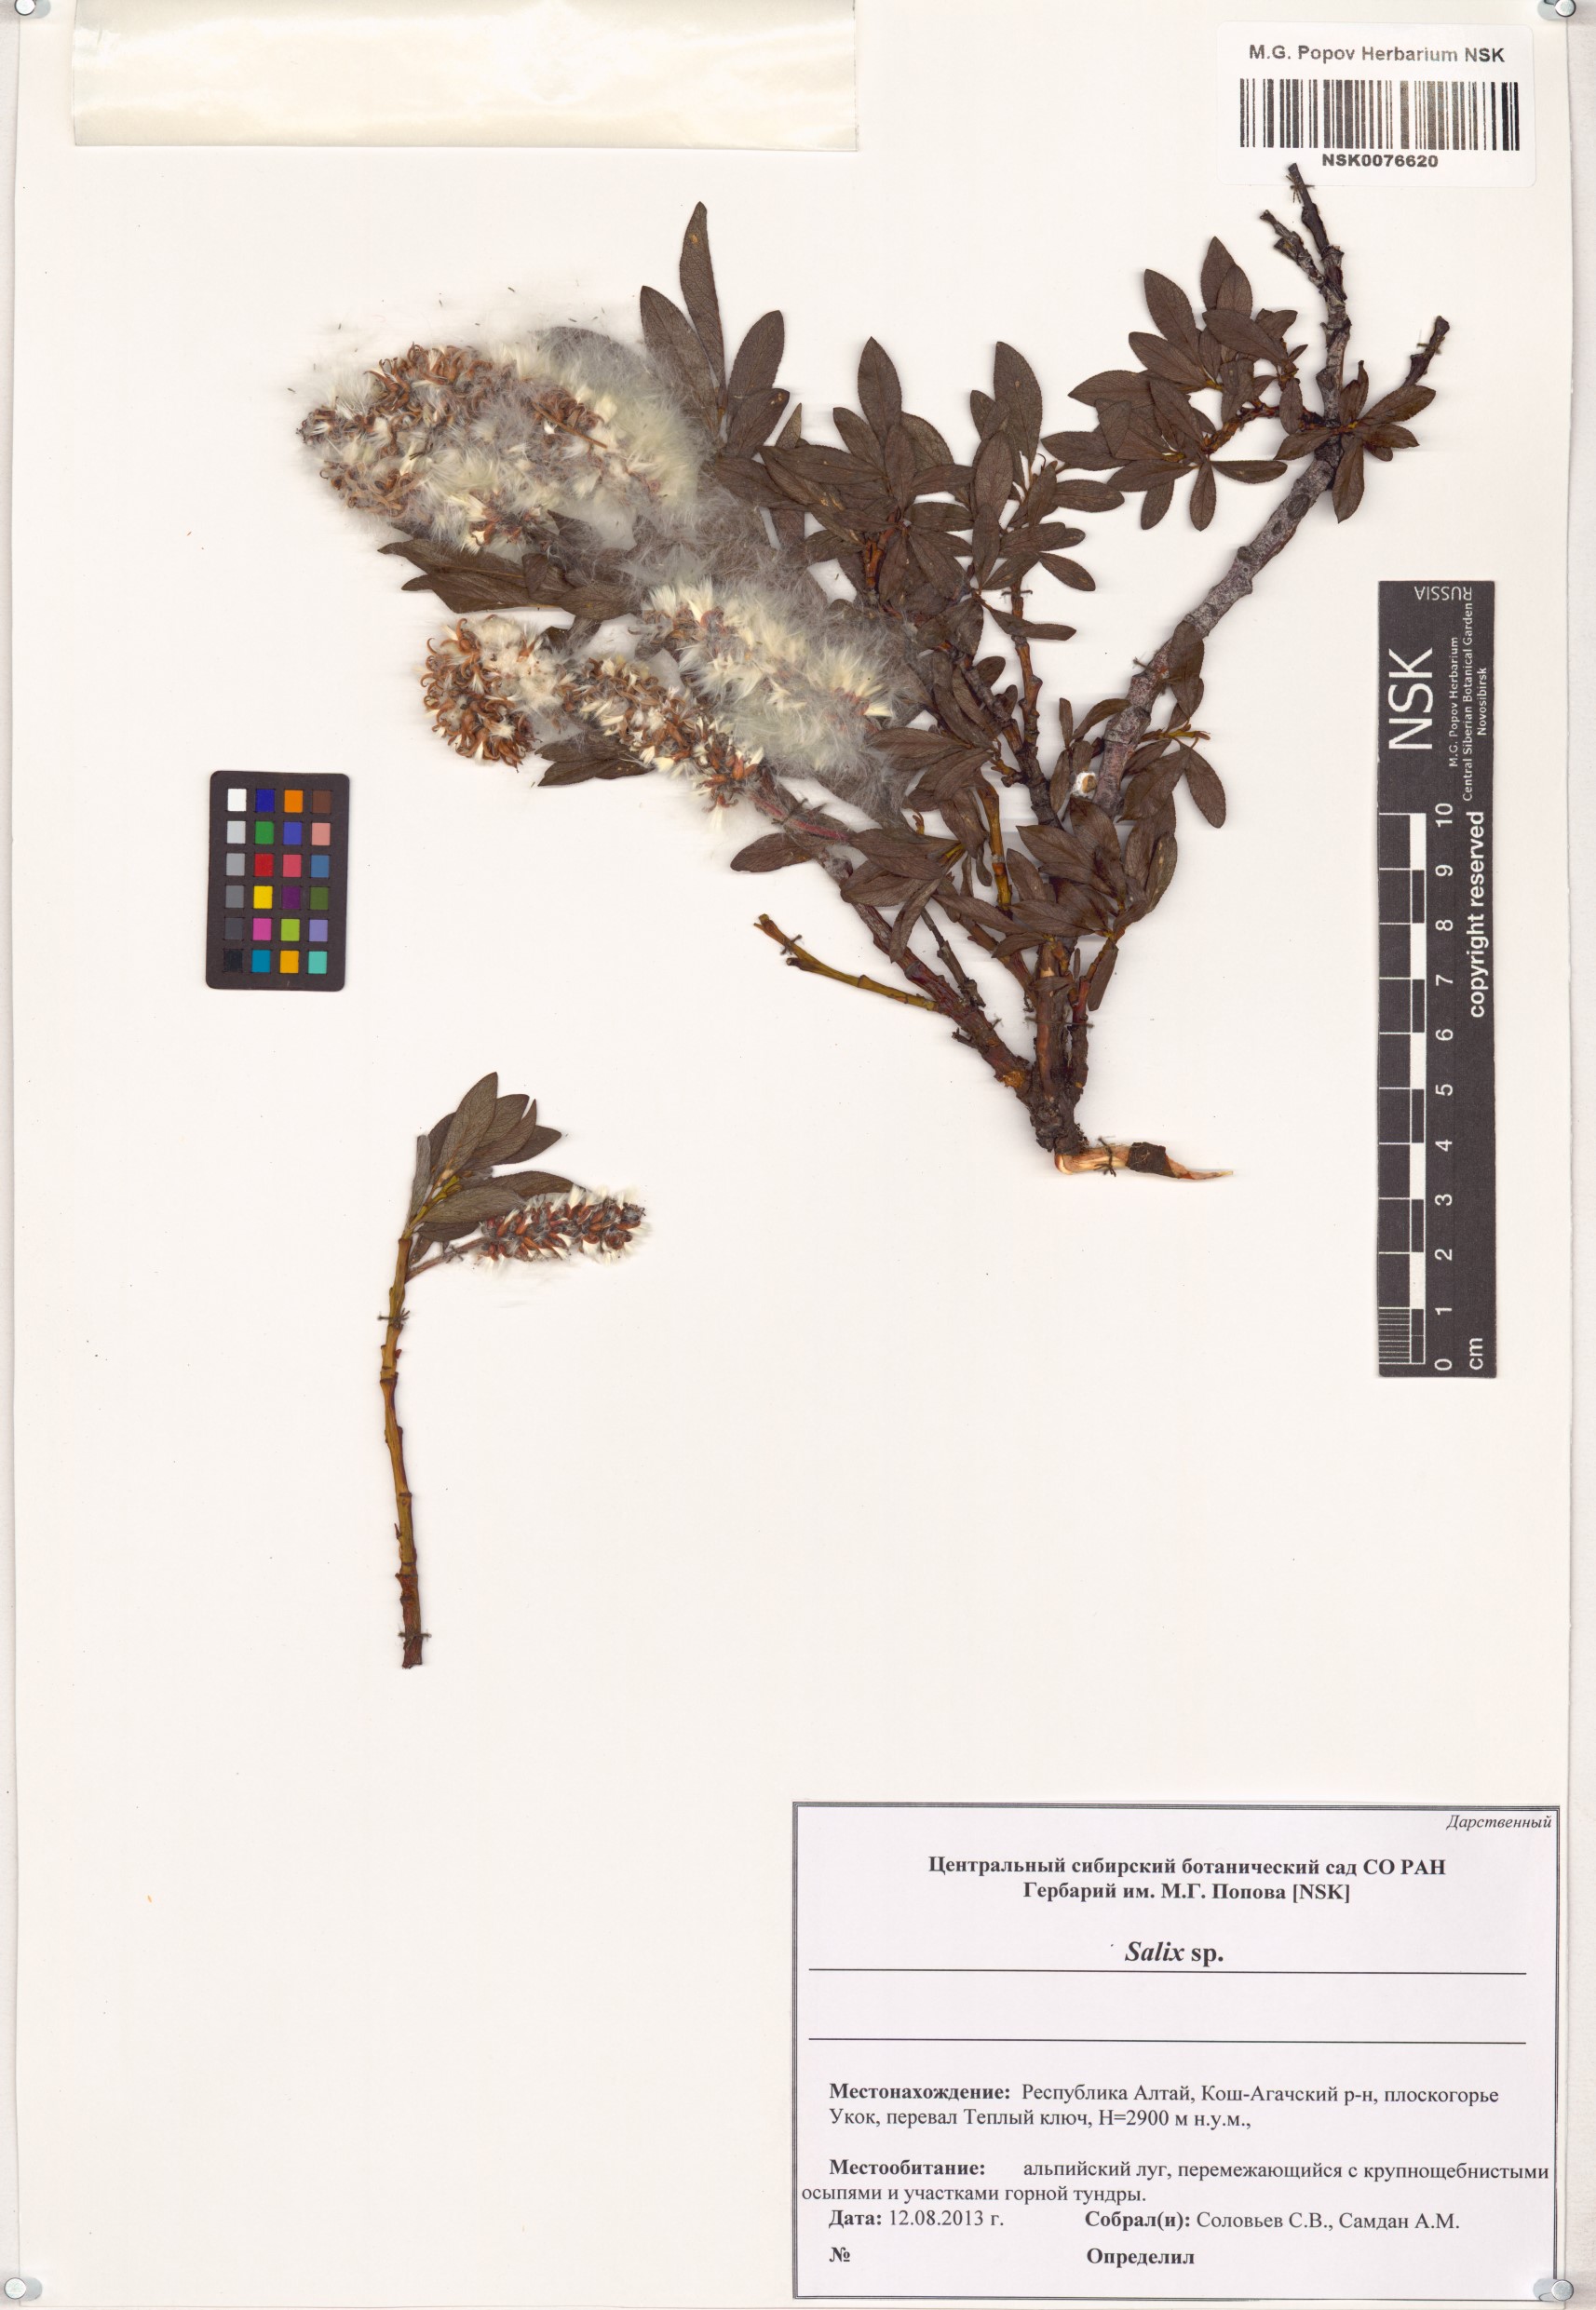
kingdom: Plantae
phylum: Tracheophyta
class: Magnoliopsida
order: Malpighiales
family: Salicaceae
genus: Salix
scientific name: Salix
